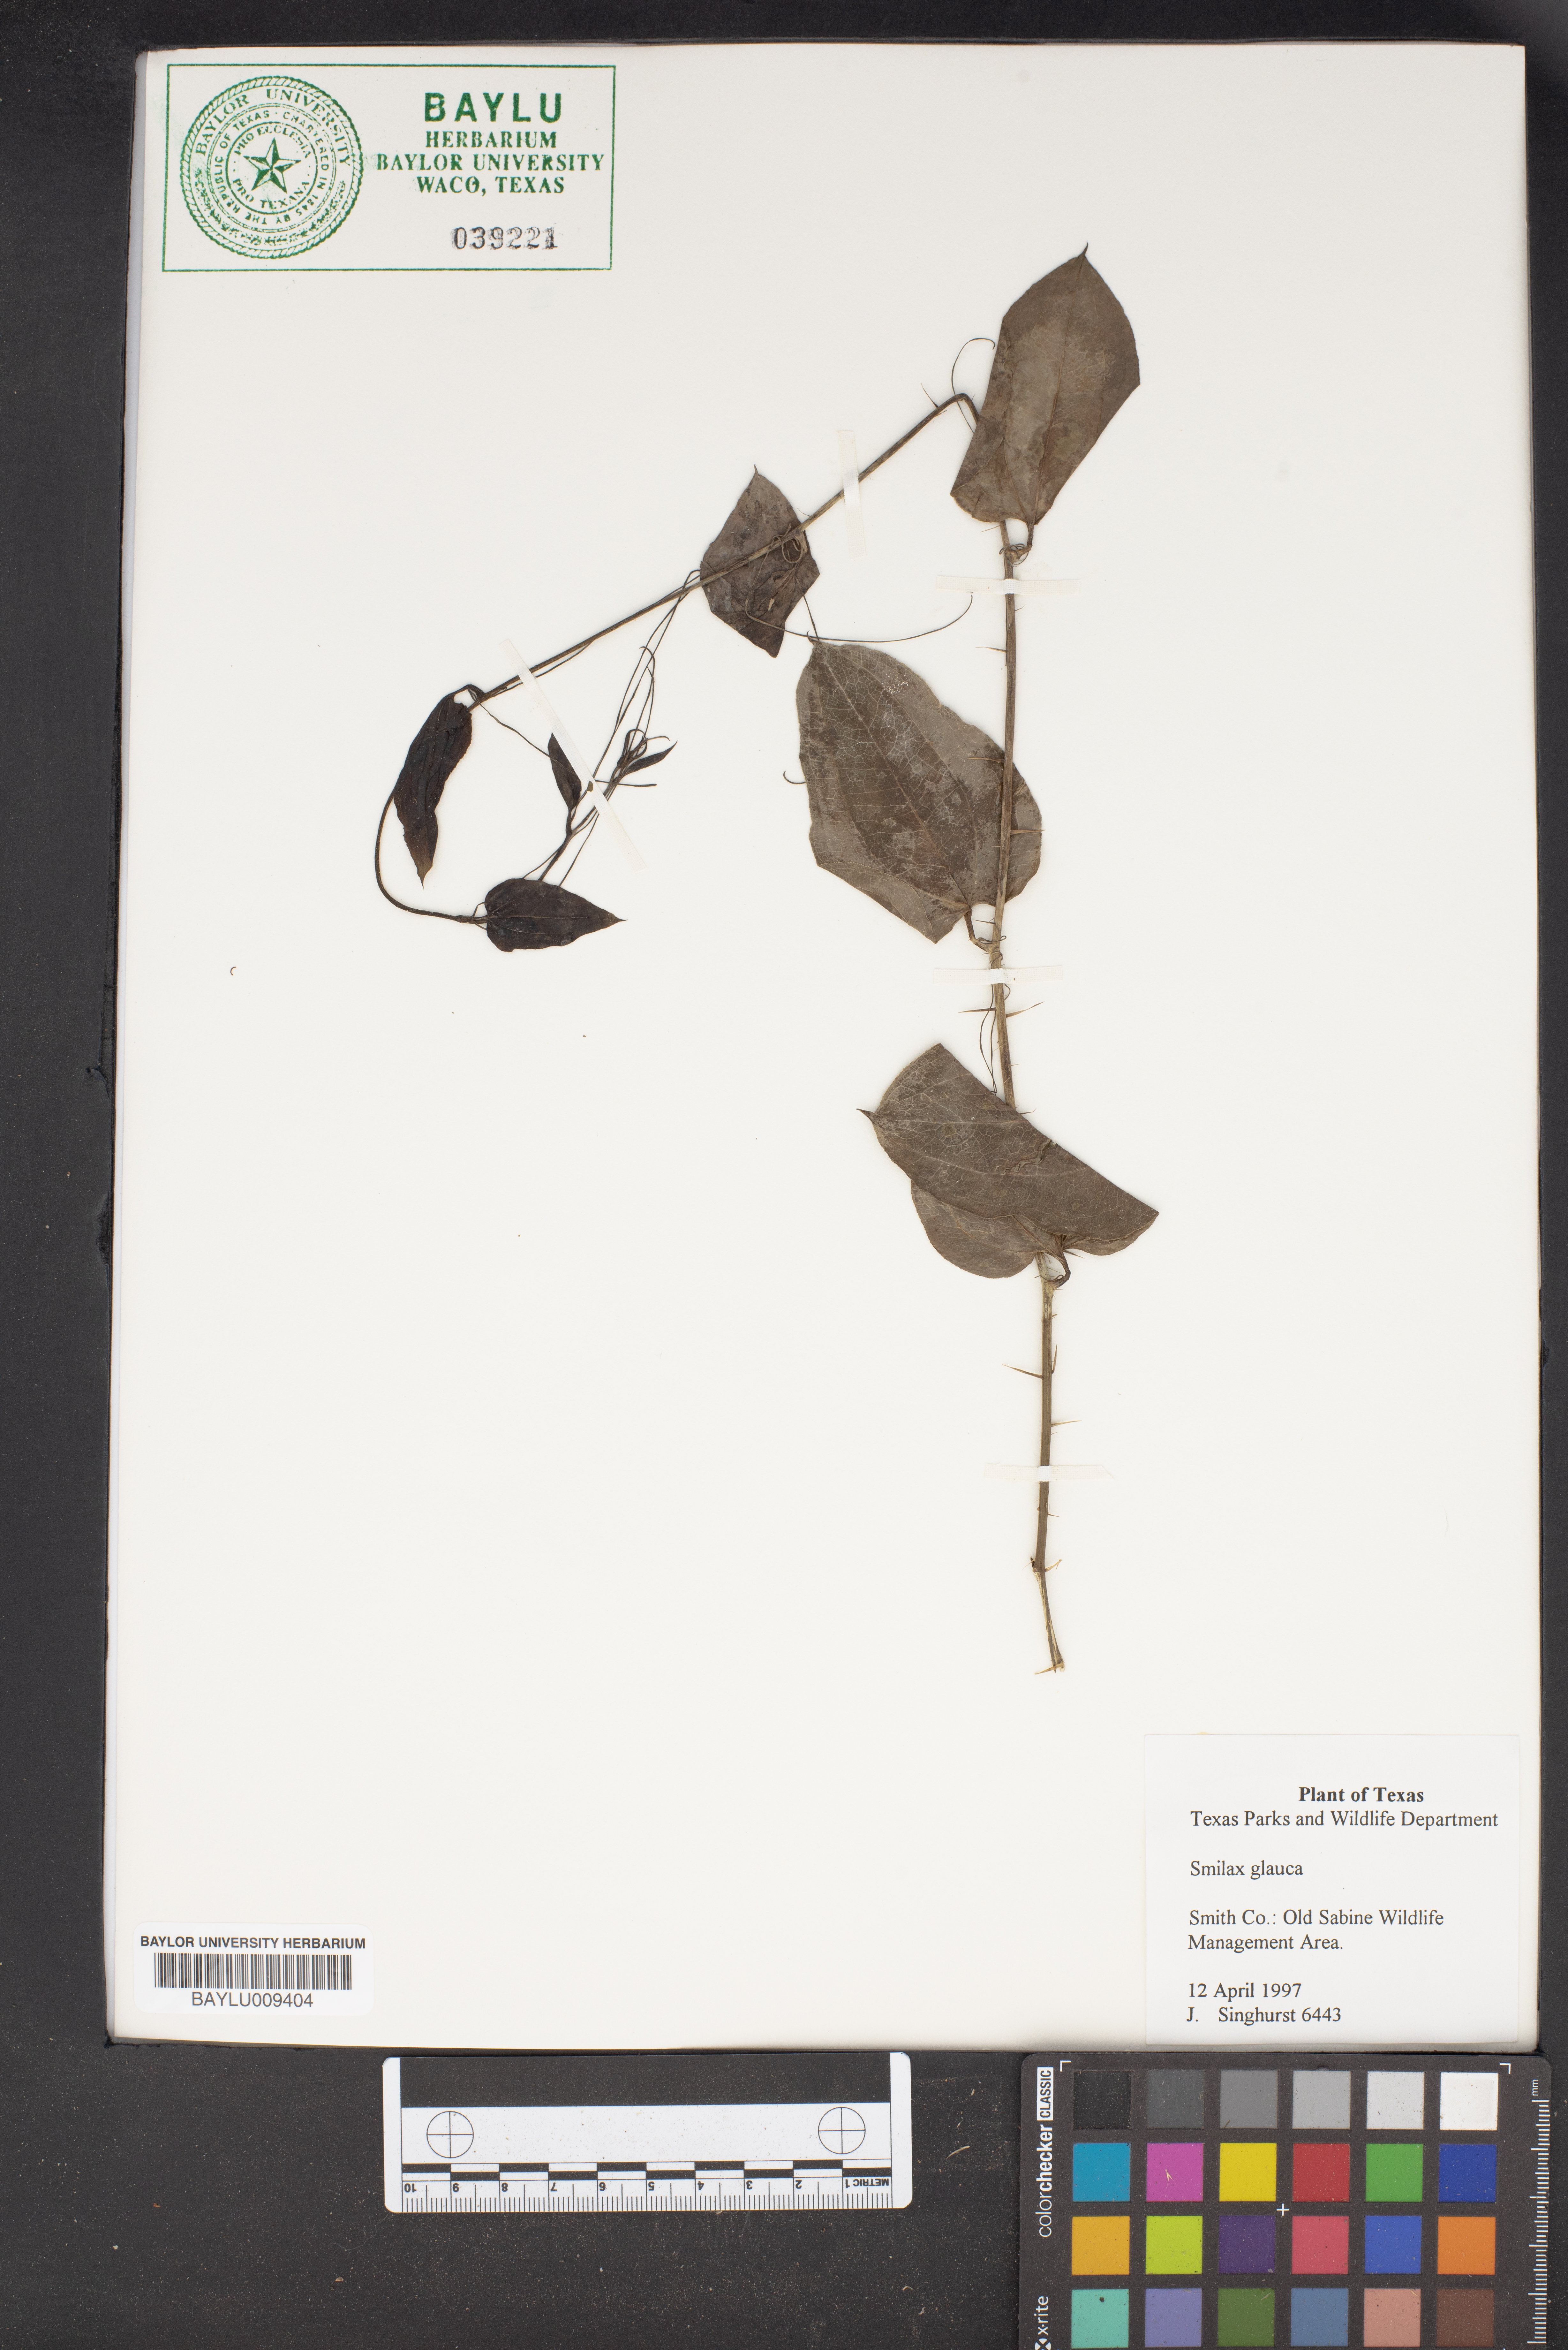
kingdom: Plantae
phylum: Tracheophyta
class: Liliopsida
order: Liliales
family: Smilacaceae
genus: Smilax
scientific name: Smilax glauca
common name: Cat greenbrier
